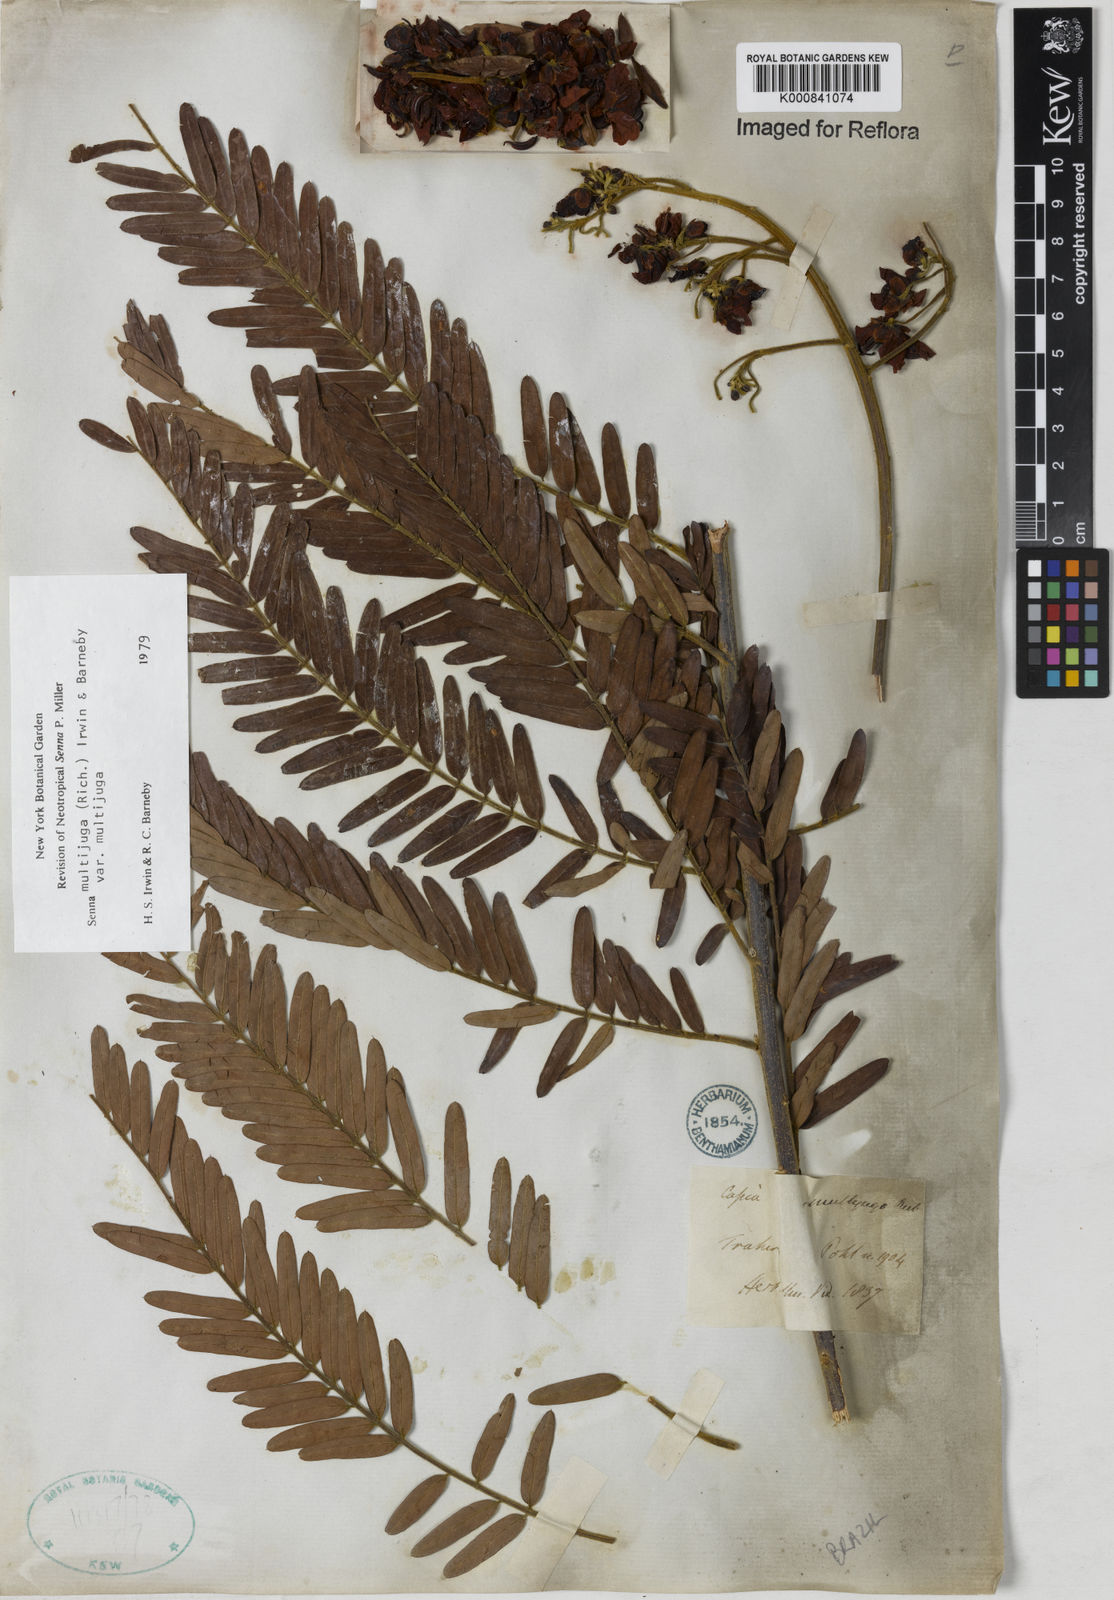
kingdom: Plantae
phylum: Tracheophyta
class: Magnoliopsida
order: Fabales
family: Fabaceae
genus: Senna
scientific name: Senna multijuga
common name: False sicklepod
